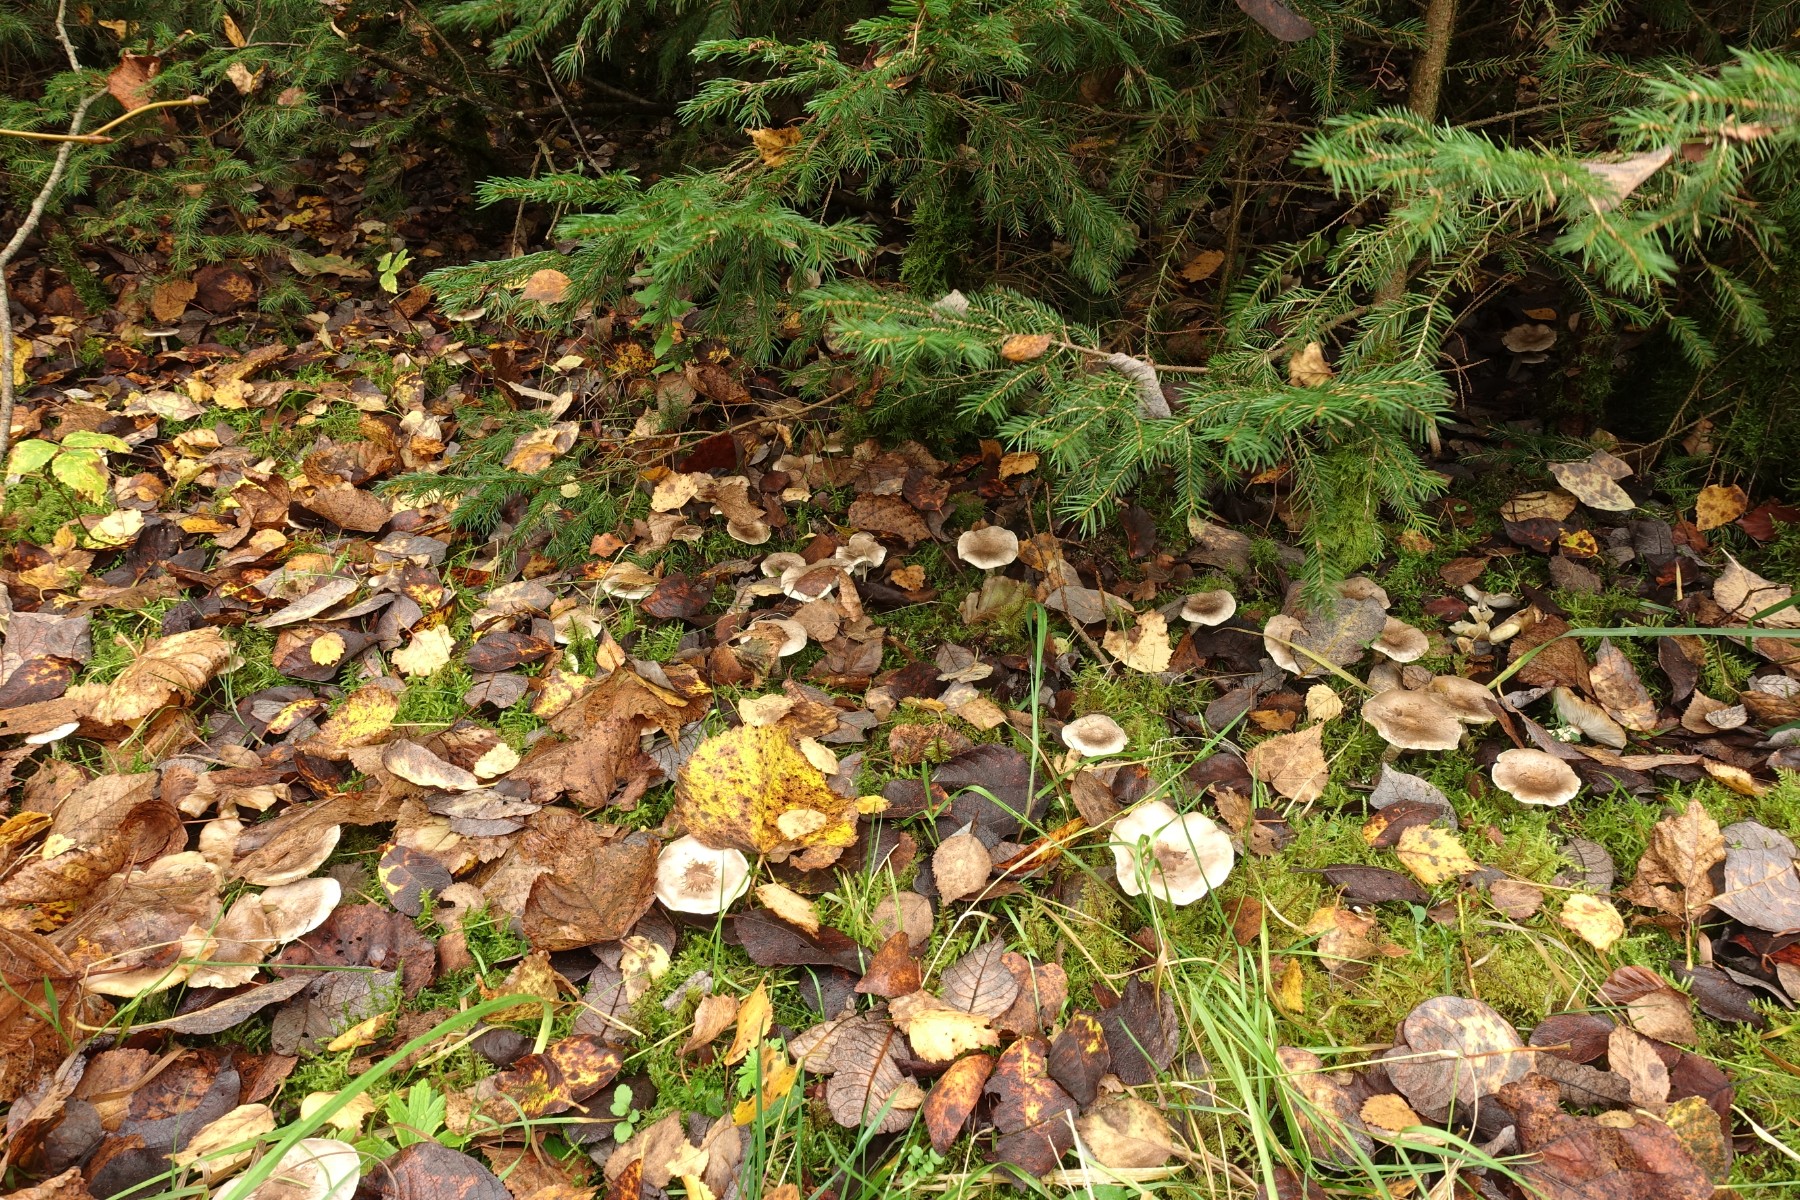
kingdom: Fungi
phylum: Basidiomycota
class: Agaricomycetes
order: Agaricales
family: Tricholomataceae
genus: Tricholoma
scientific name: Tricholoma cingulatum
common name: ring-ridderhat
